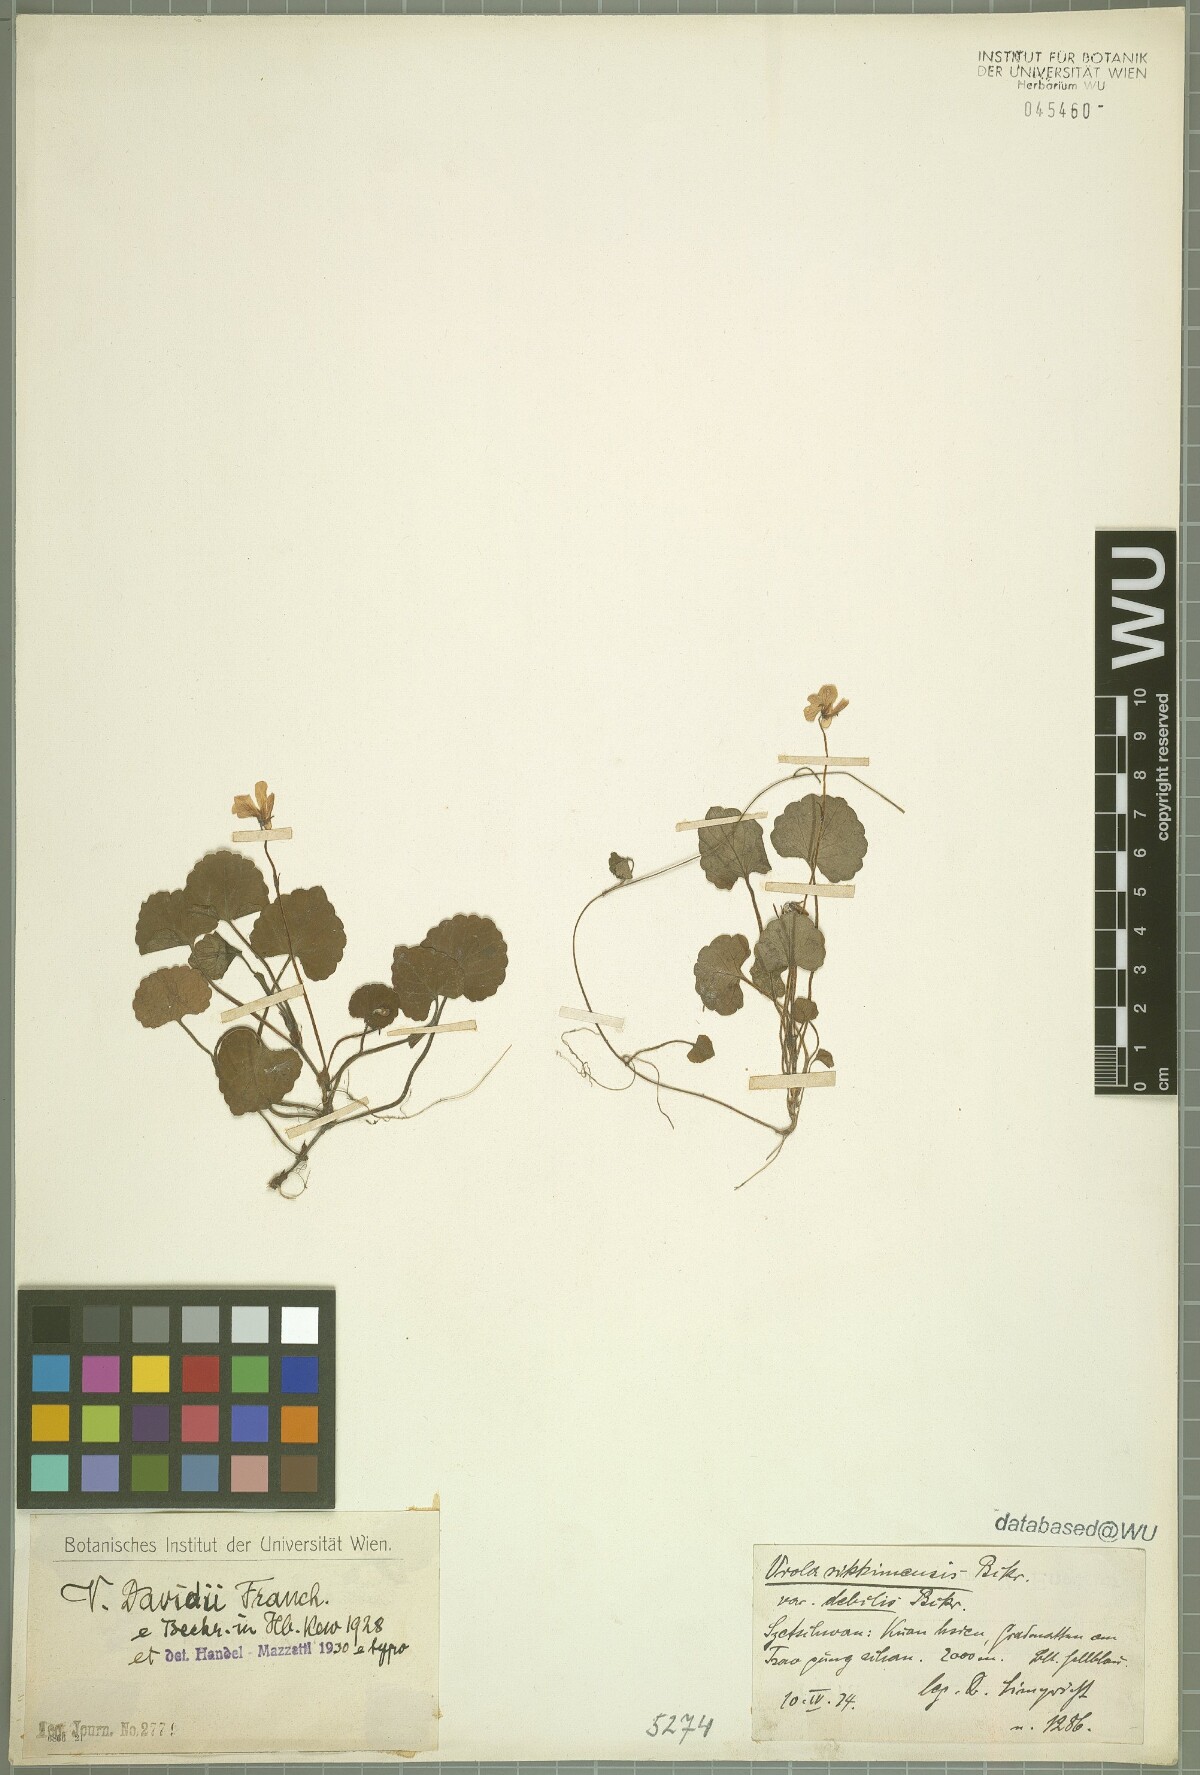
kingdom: Plantae
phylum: Tracheophyta
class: Magnoliopsida
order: Malpighiales
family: Violaceae
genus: Viola
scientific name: Viola davidii
